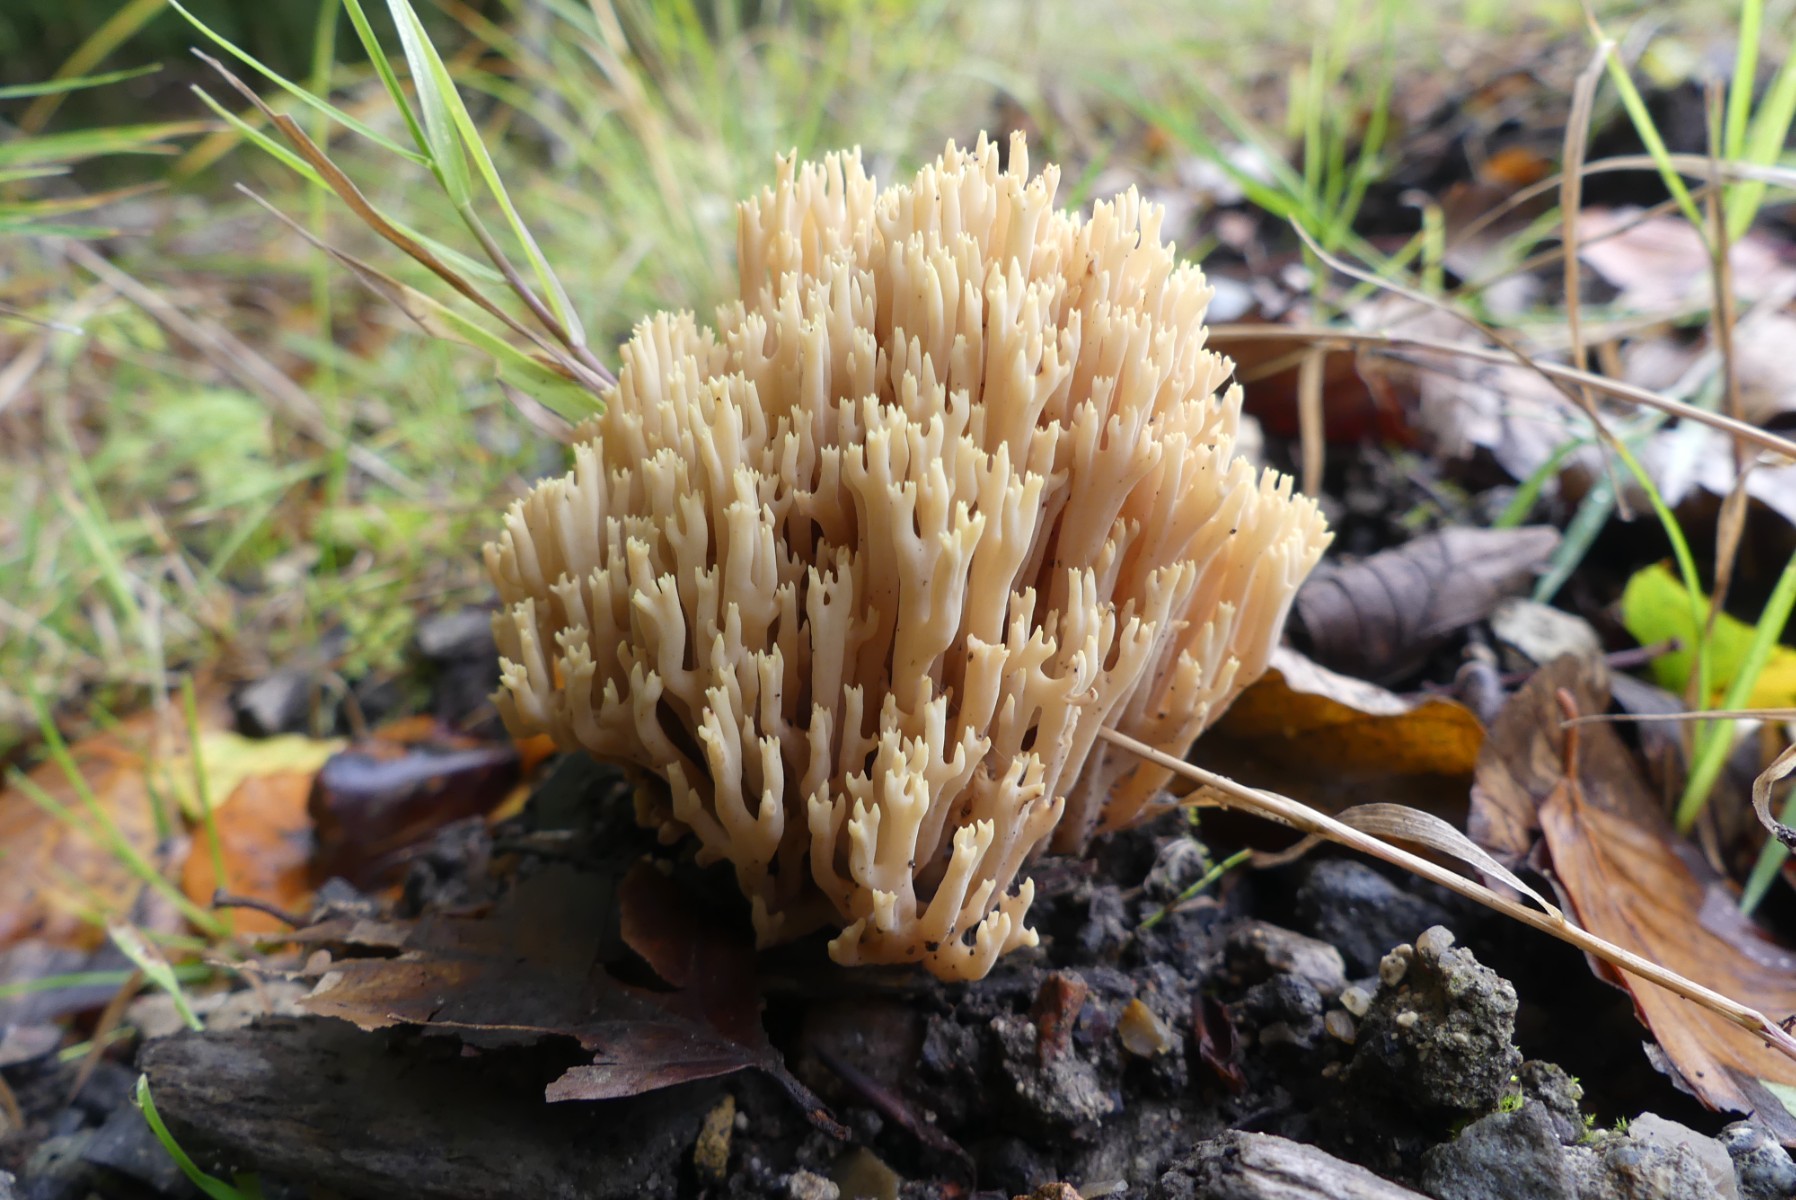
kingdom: Fungi
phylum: Basidiomycota
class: Agaricomycetes
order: Gomphales
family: Gomphaceae
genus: Ramaria
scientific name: Ramaria stricta
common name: rank koralsvamp
